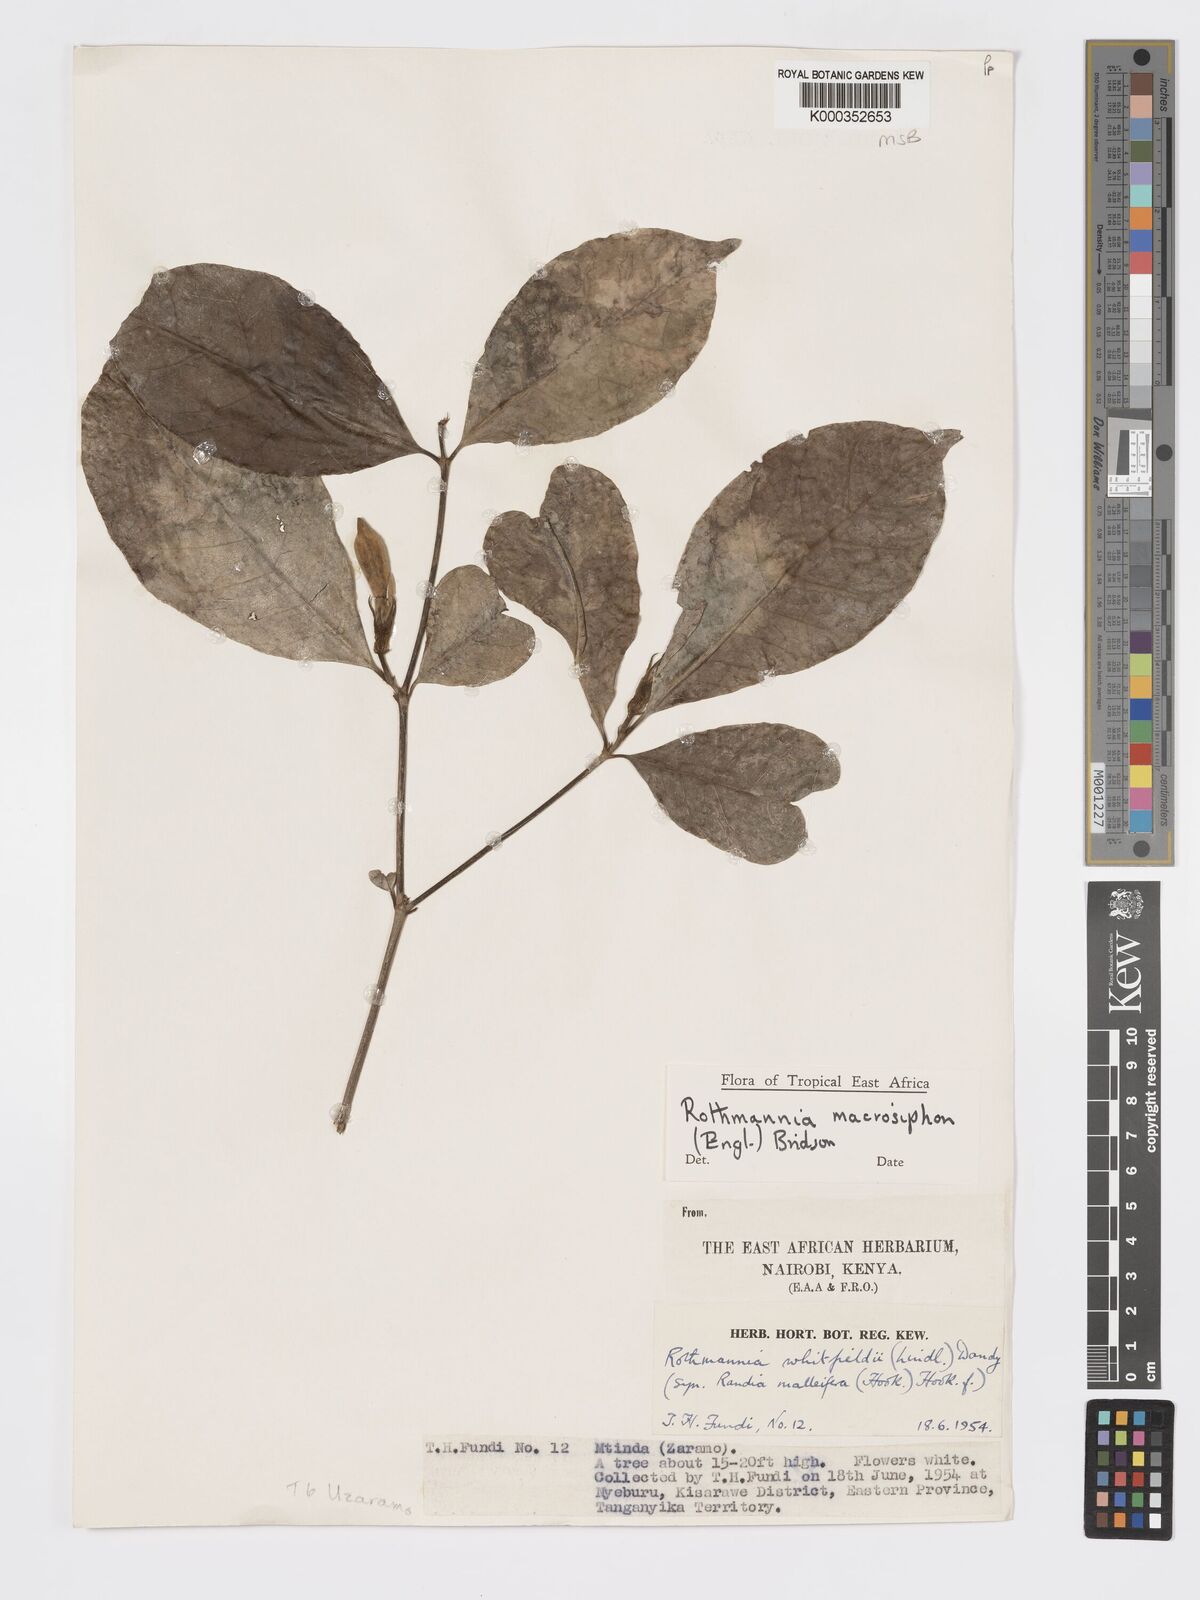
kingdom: Plantae
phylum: Tracheophyta
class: Magnoliopsida
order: Gentianales
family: Rubiaceae
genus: Rothmannia
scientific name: Rothmannia macrosiphon
